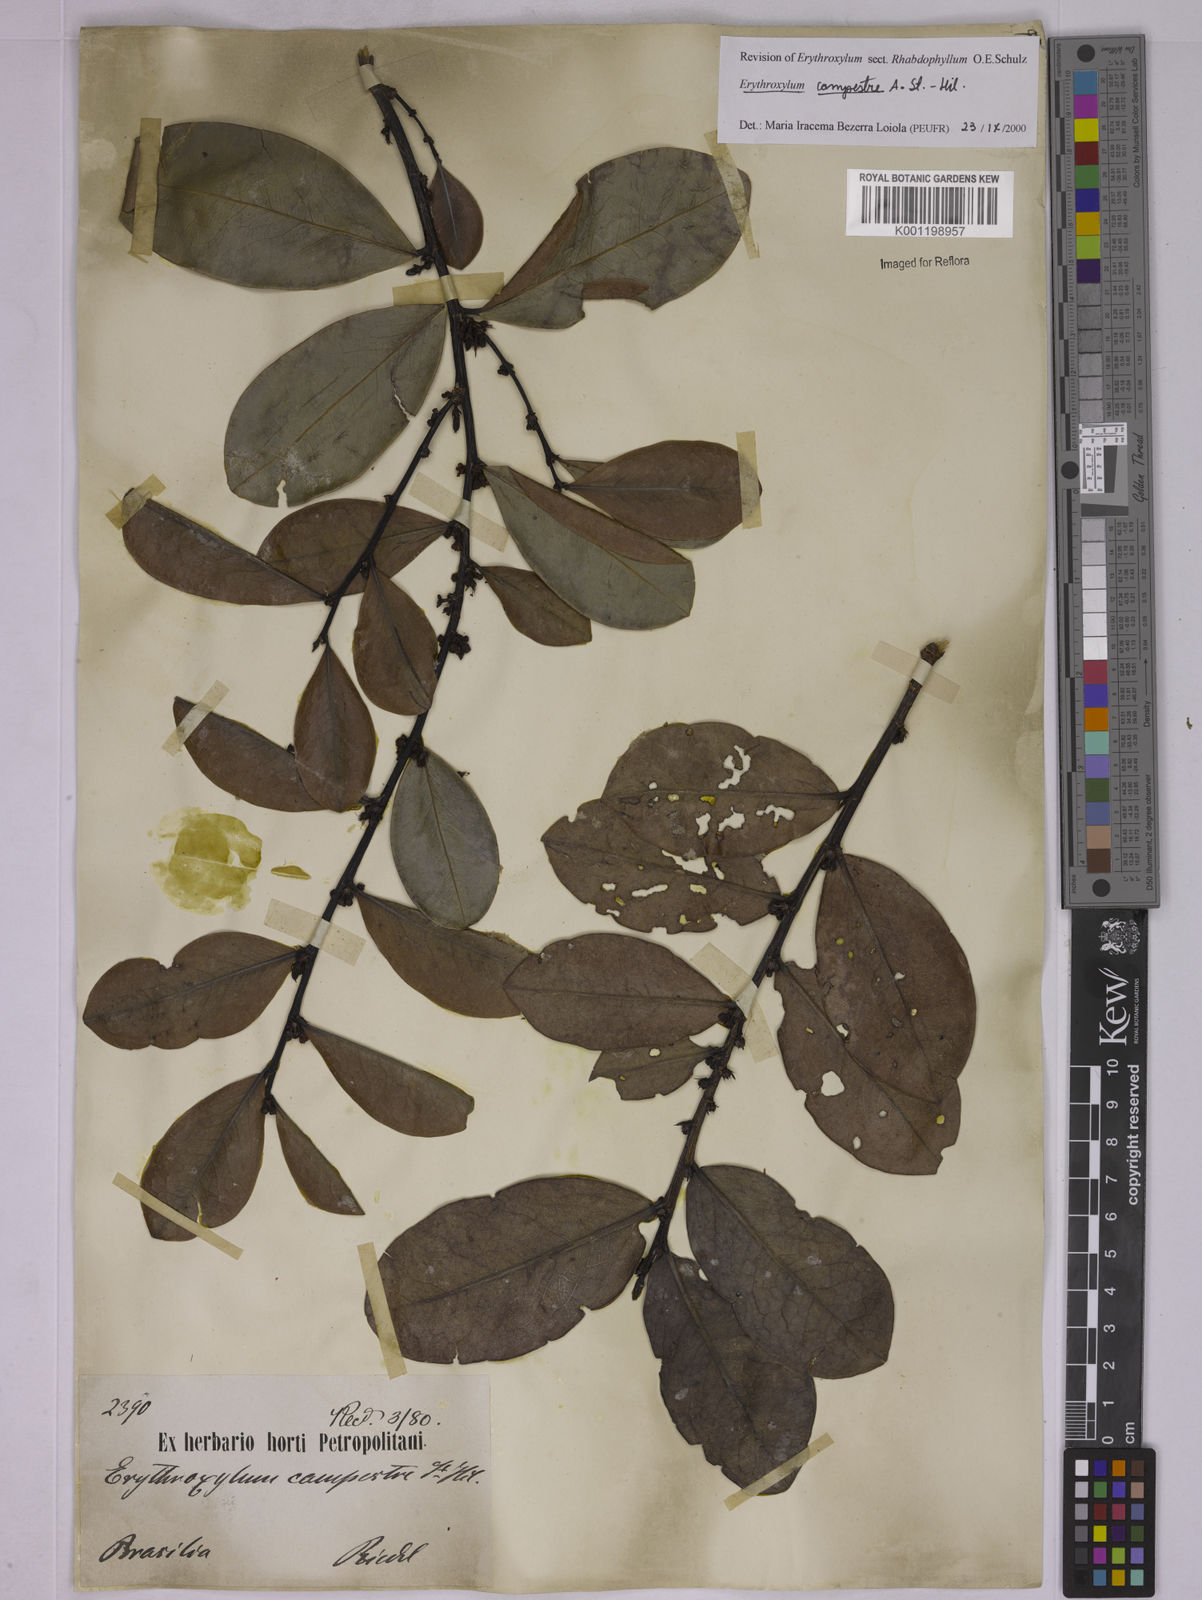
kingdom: Plantae
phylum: Tracheophyta
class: Magnoliopsida
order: Malpighiales
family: Erythroxylaceae
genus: Erythroxylum
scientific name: Erythroxylum campestre
